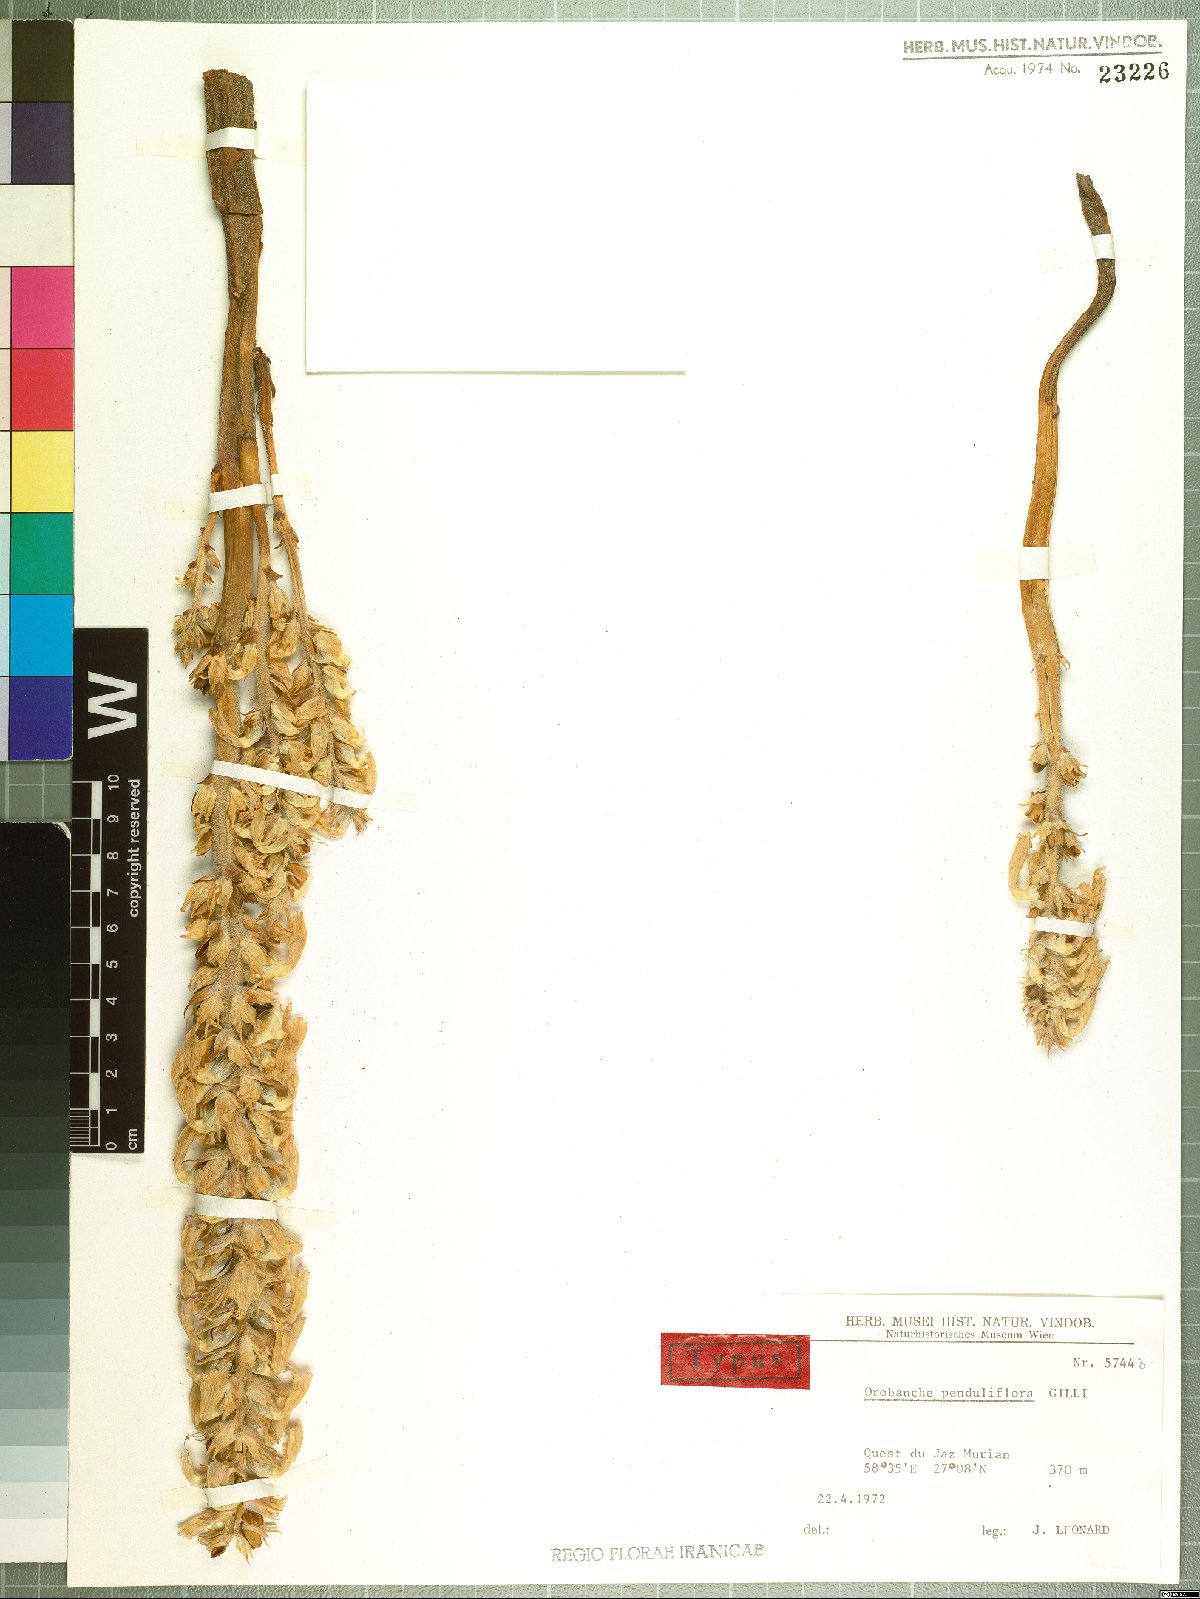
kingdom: Plantae
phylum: Tracheophyta
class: Magnoliopsida
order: Lamiales
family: Orobanchaceae
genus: Phelipanche
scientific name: Phelipanche penduliflora
